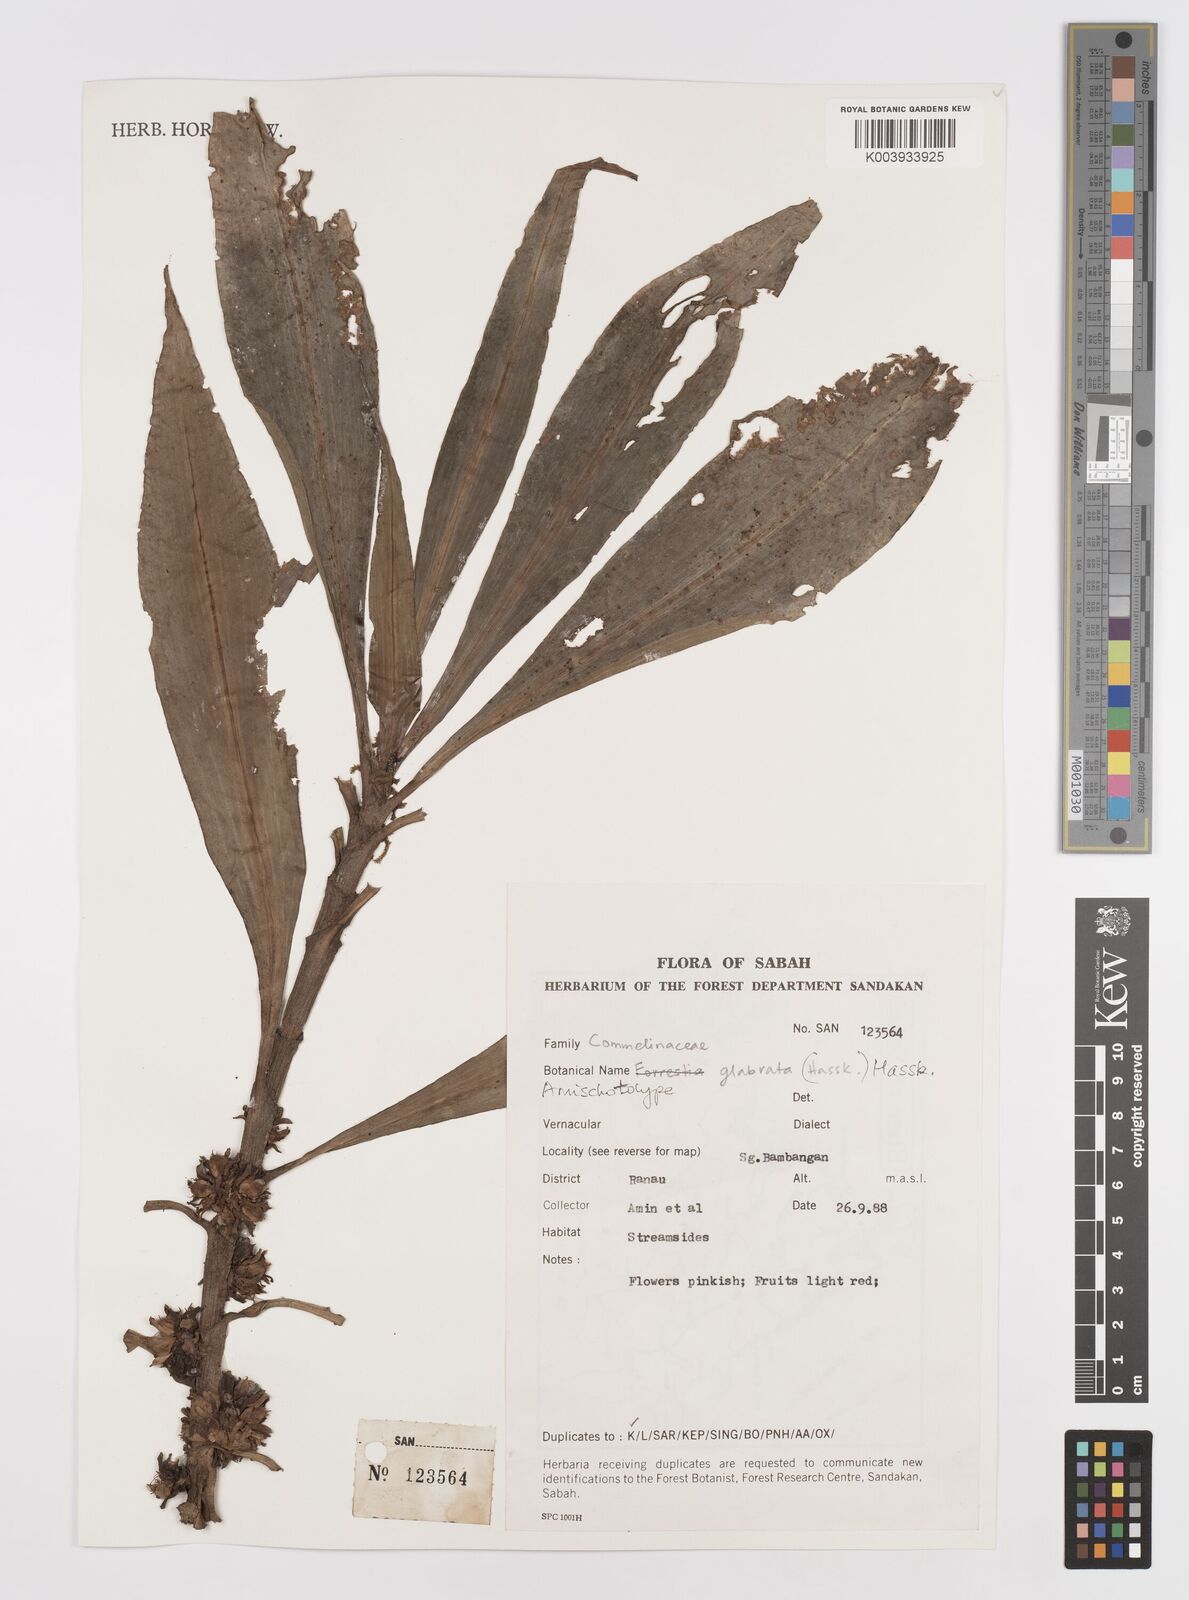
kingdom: Plantae
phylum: Tracheophyta
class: Liliopsida
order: Commelinales
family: Commelinaceae
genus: Amischotolype
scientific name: Amischotolype glabrata
